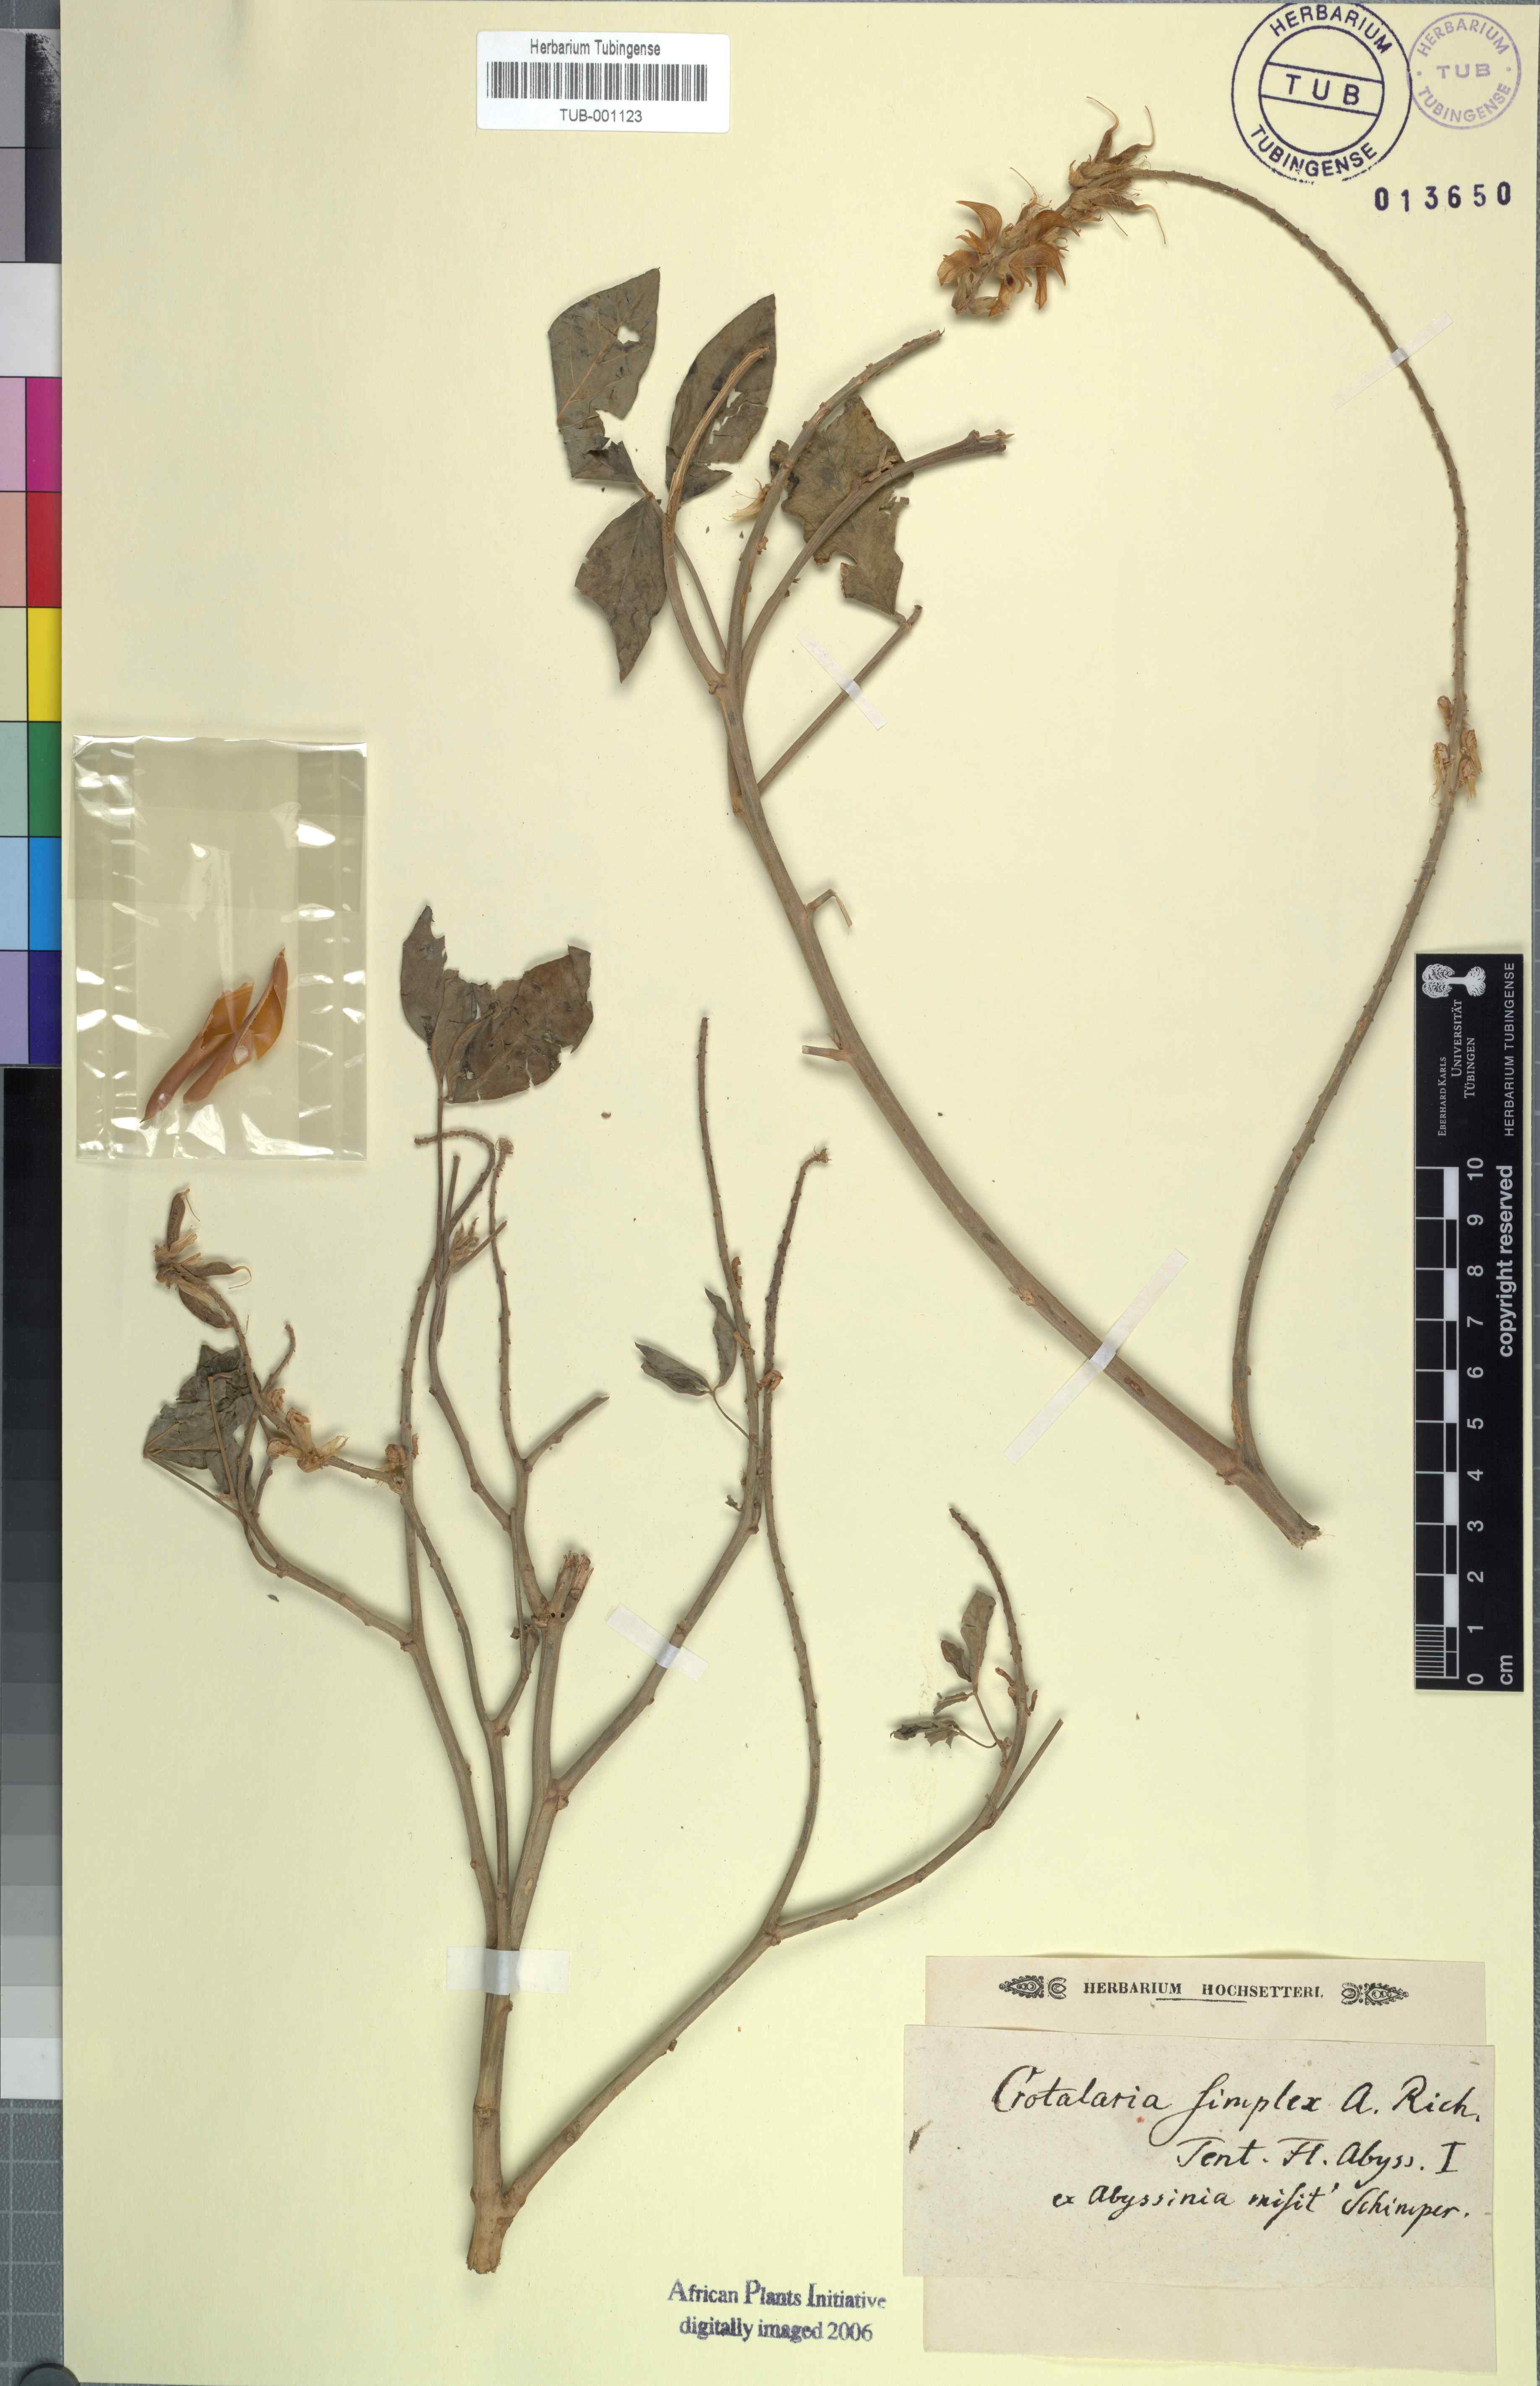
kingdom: Plantae
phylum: Tracheophyta
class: Magnoliopsida
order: Fabales
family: Fabaceae
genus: Crotalaria
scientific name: Crotalaria recta
